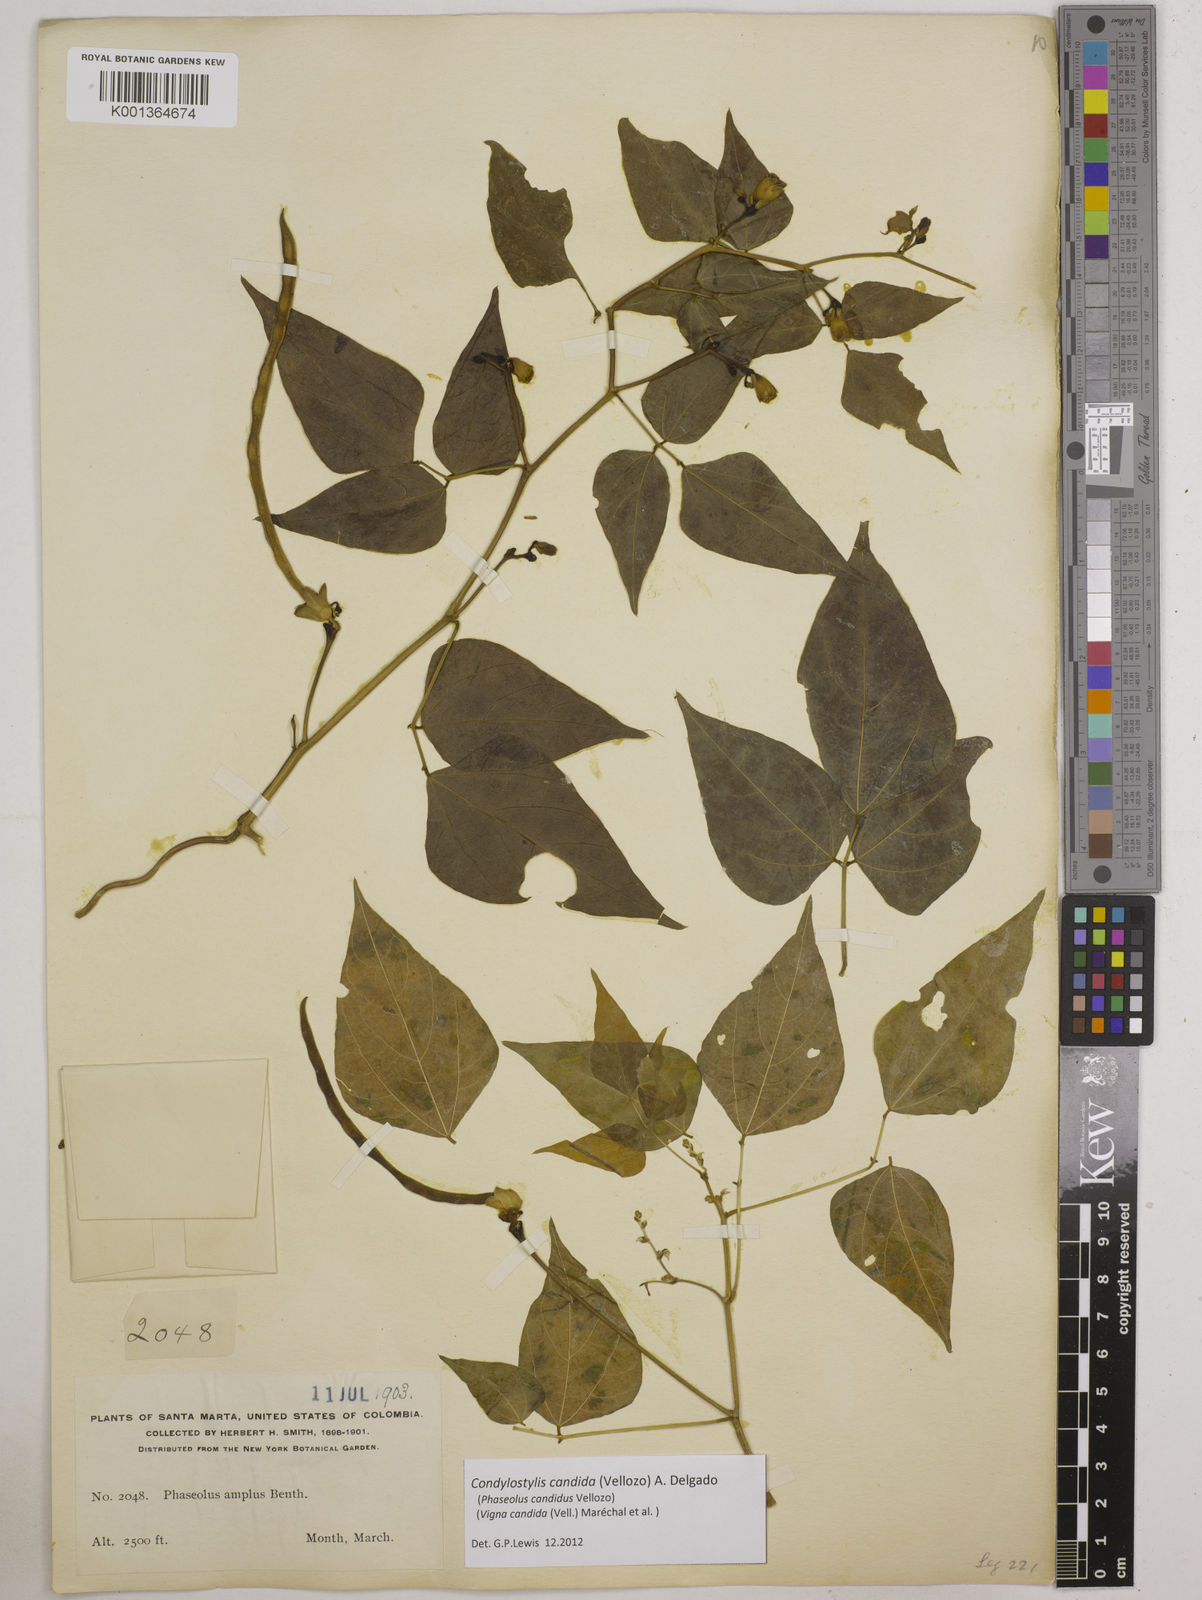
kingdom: Plantae
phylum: Tracheophyta
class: Magnoliopsida
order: Fabales
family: Fabaceae
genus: Condylostylis
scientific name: Condylostylis candida
